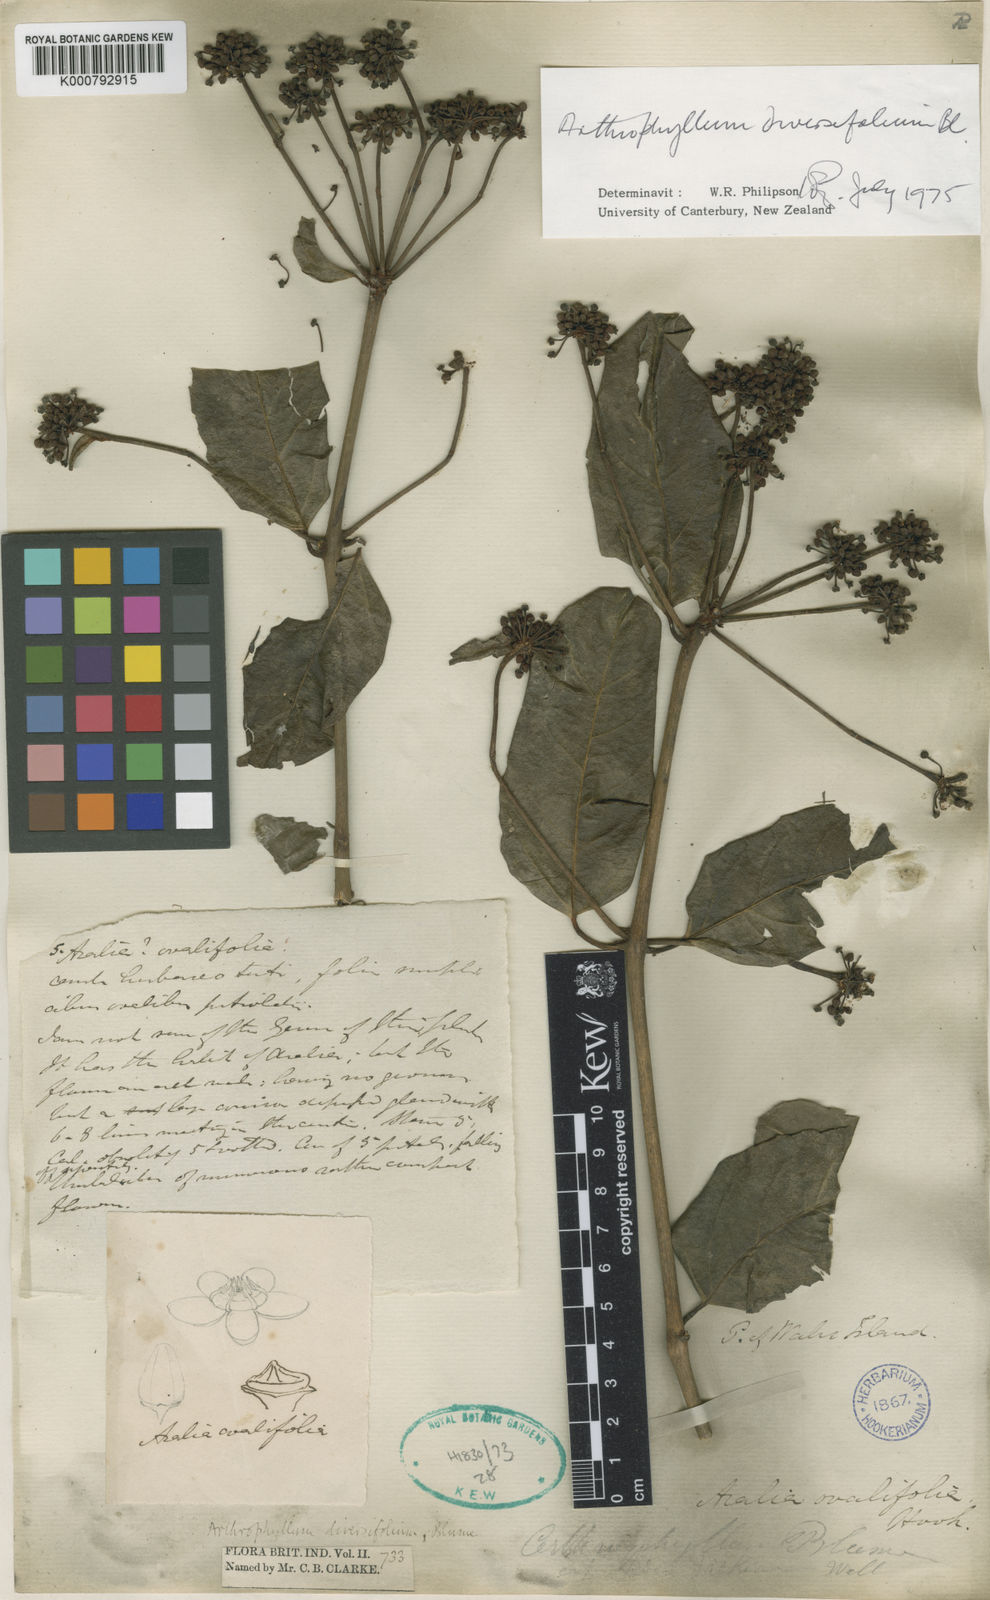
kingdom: Plantae
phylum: Tracheophyta
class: Magnoliopsida
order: Apiales
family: Araliaceae
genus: Polyscias
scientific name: Polyscias diversifolia
